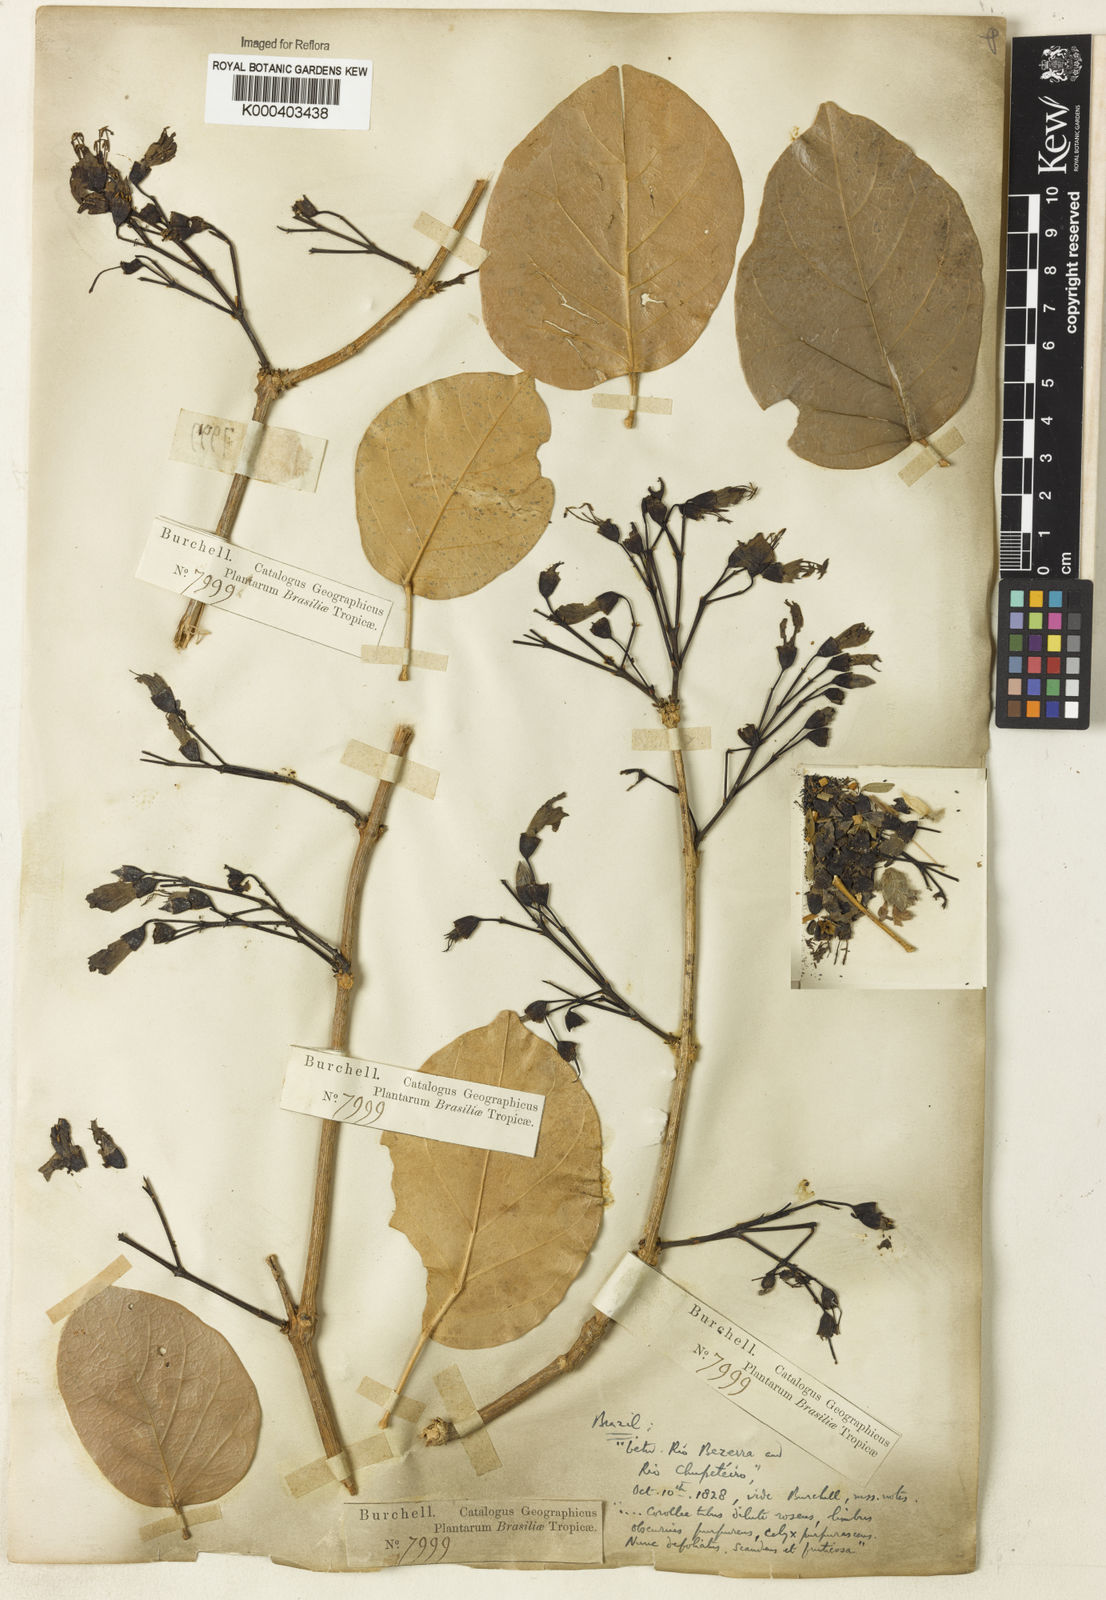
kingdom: Plantae
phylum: Tracheophyta
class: Magnoliopsida
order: Rosales
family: Rhamnaceae
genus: Arrabidaea
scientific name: Arrabidaea
